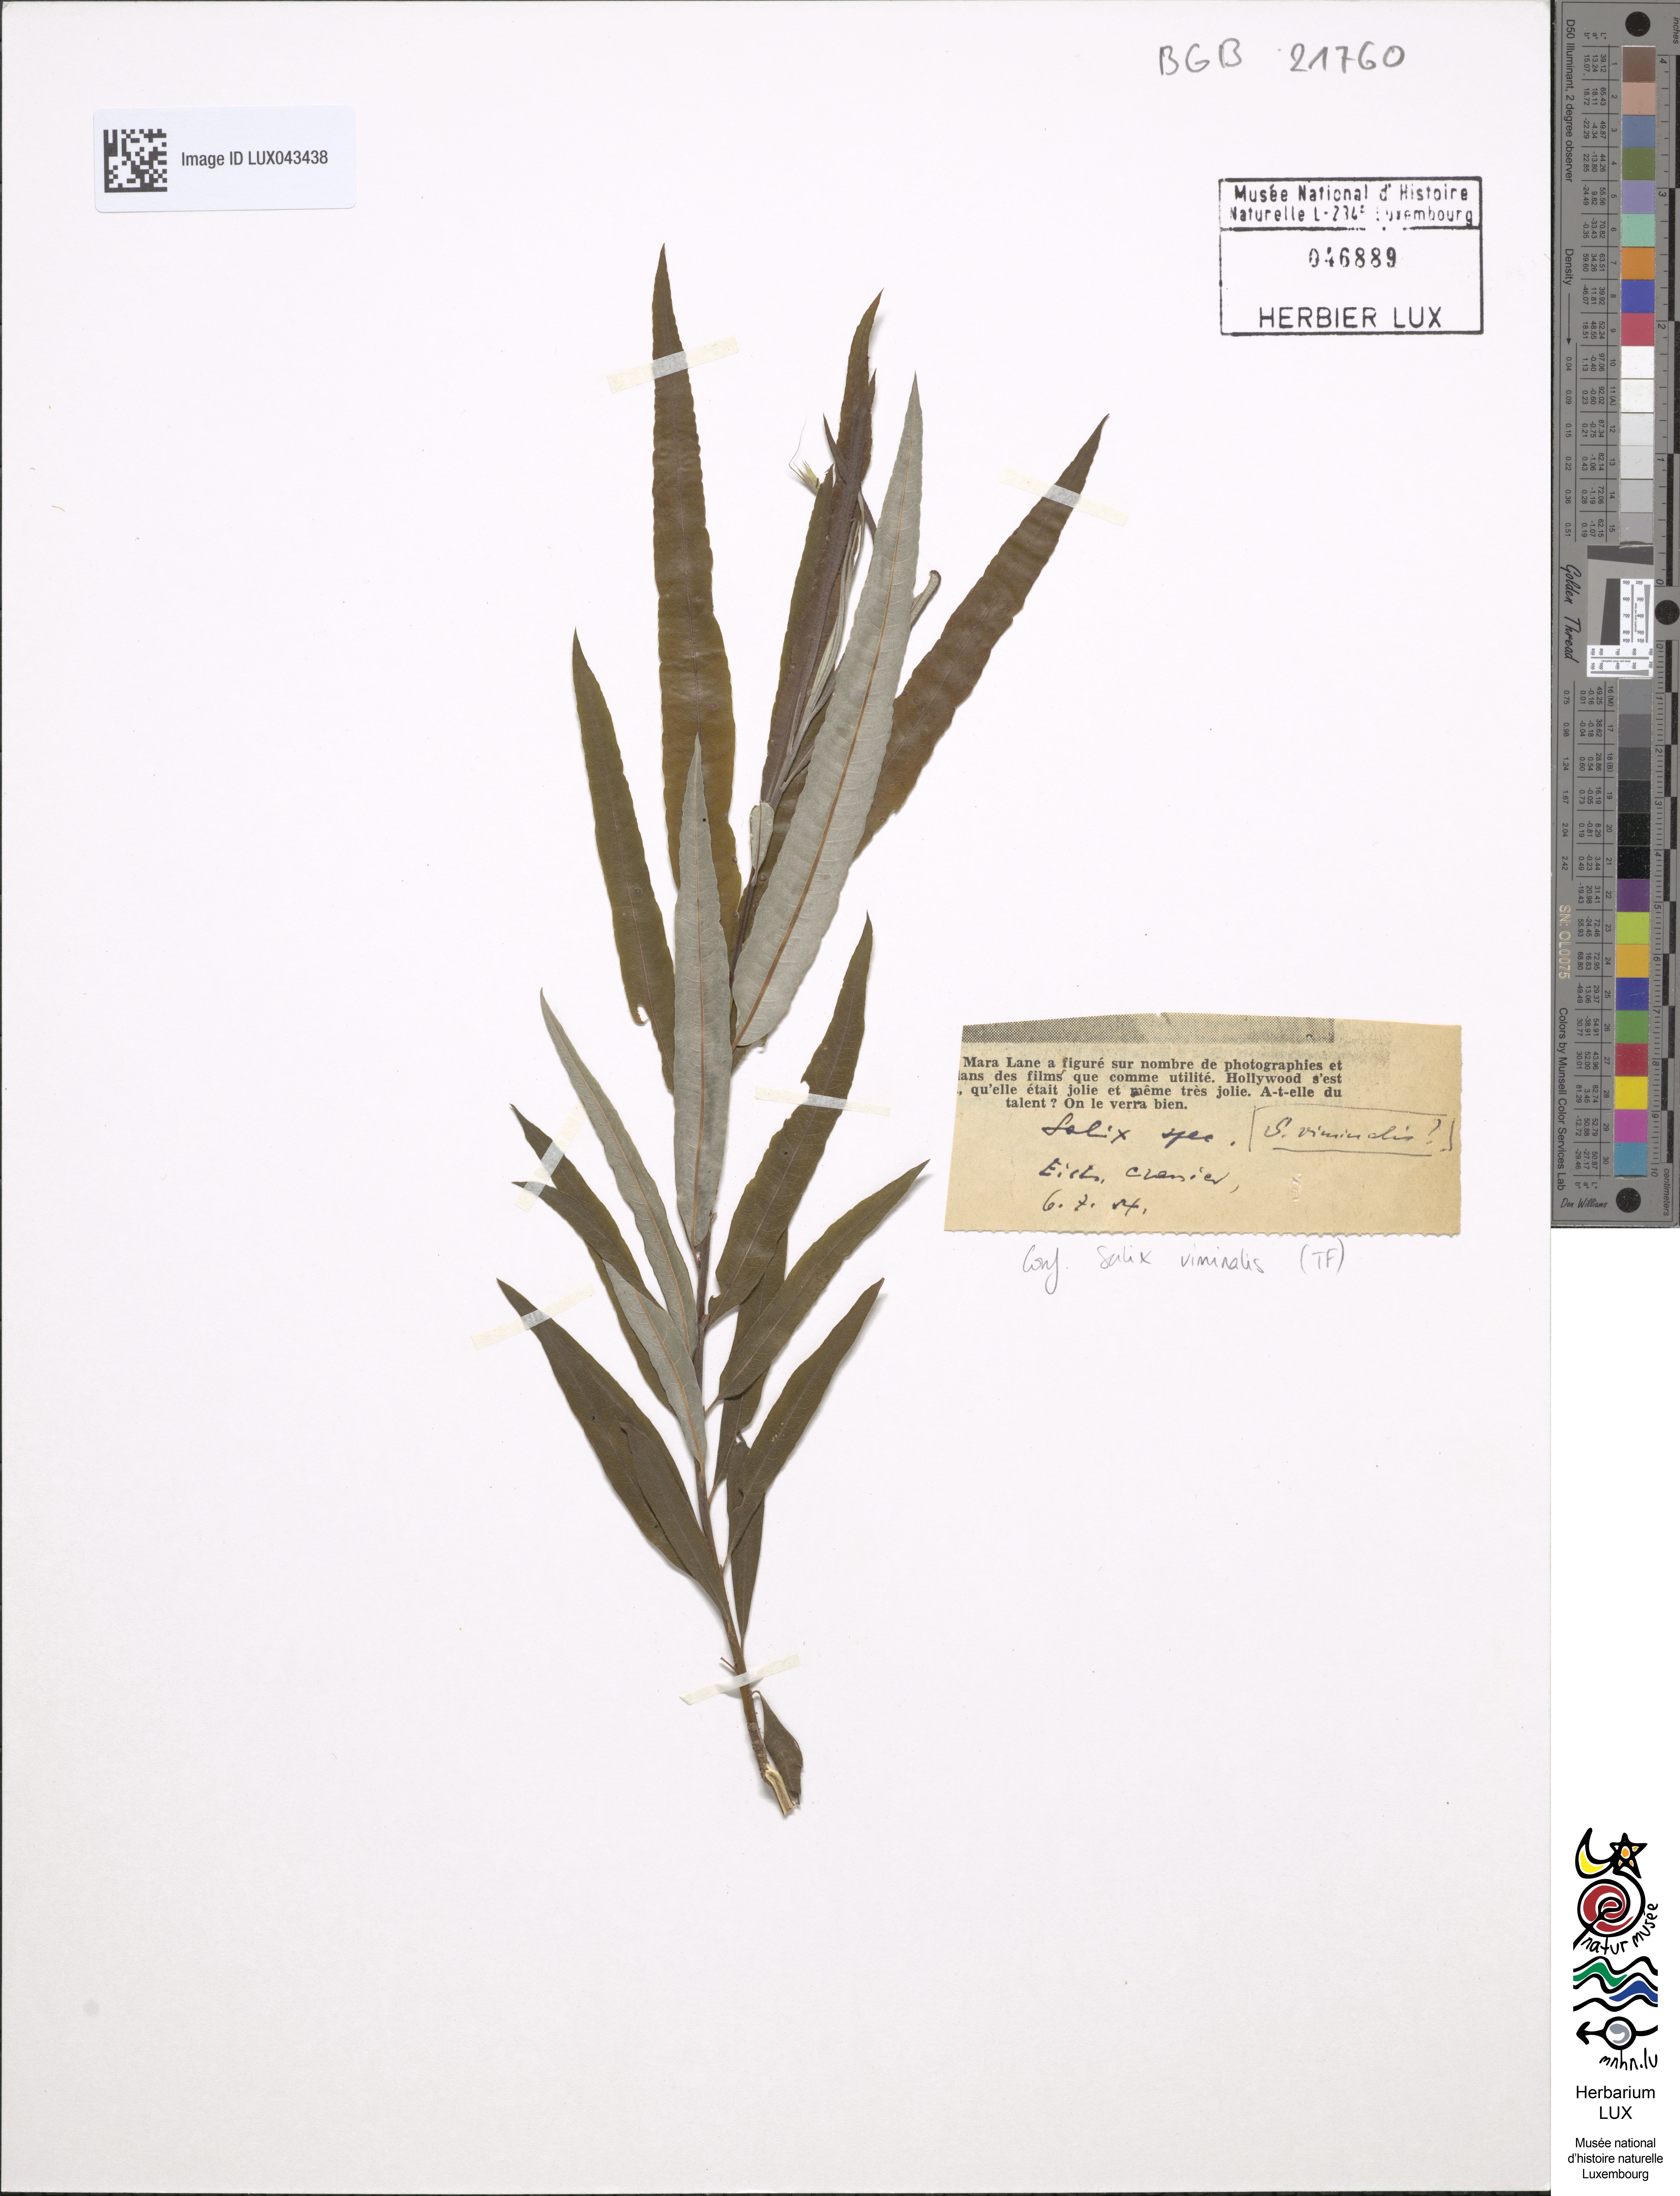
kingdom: Plantae
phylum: Tracheophyta
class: Magnoliopsida
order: Malpighiales
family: Salicaceae
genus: Salix
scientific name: Salix viminalis
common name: Osier
